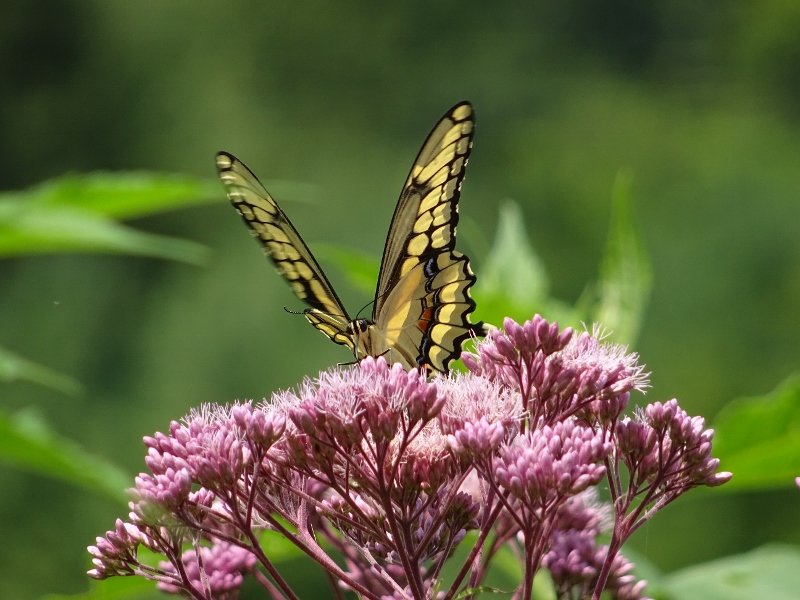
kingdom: Animalia
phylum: Arthropoda
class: Insecta
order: Lepidoptera
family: Papilionidae
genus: Papilio
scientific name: Papilio cresphontes
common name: Eastern Giant Swallowtail
